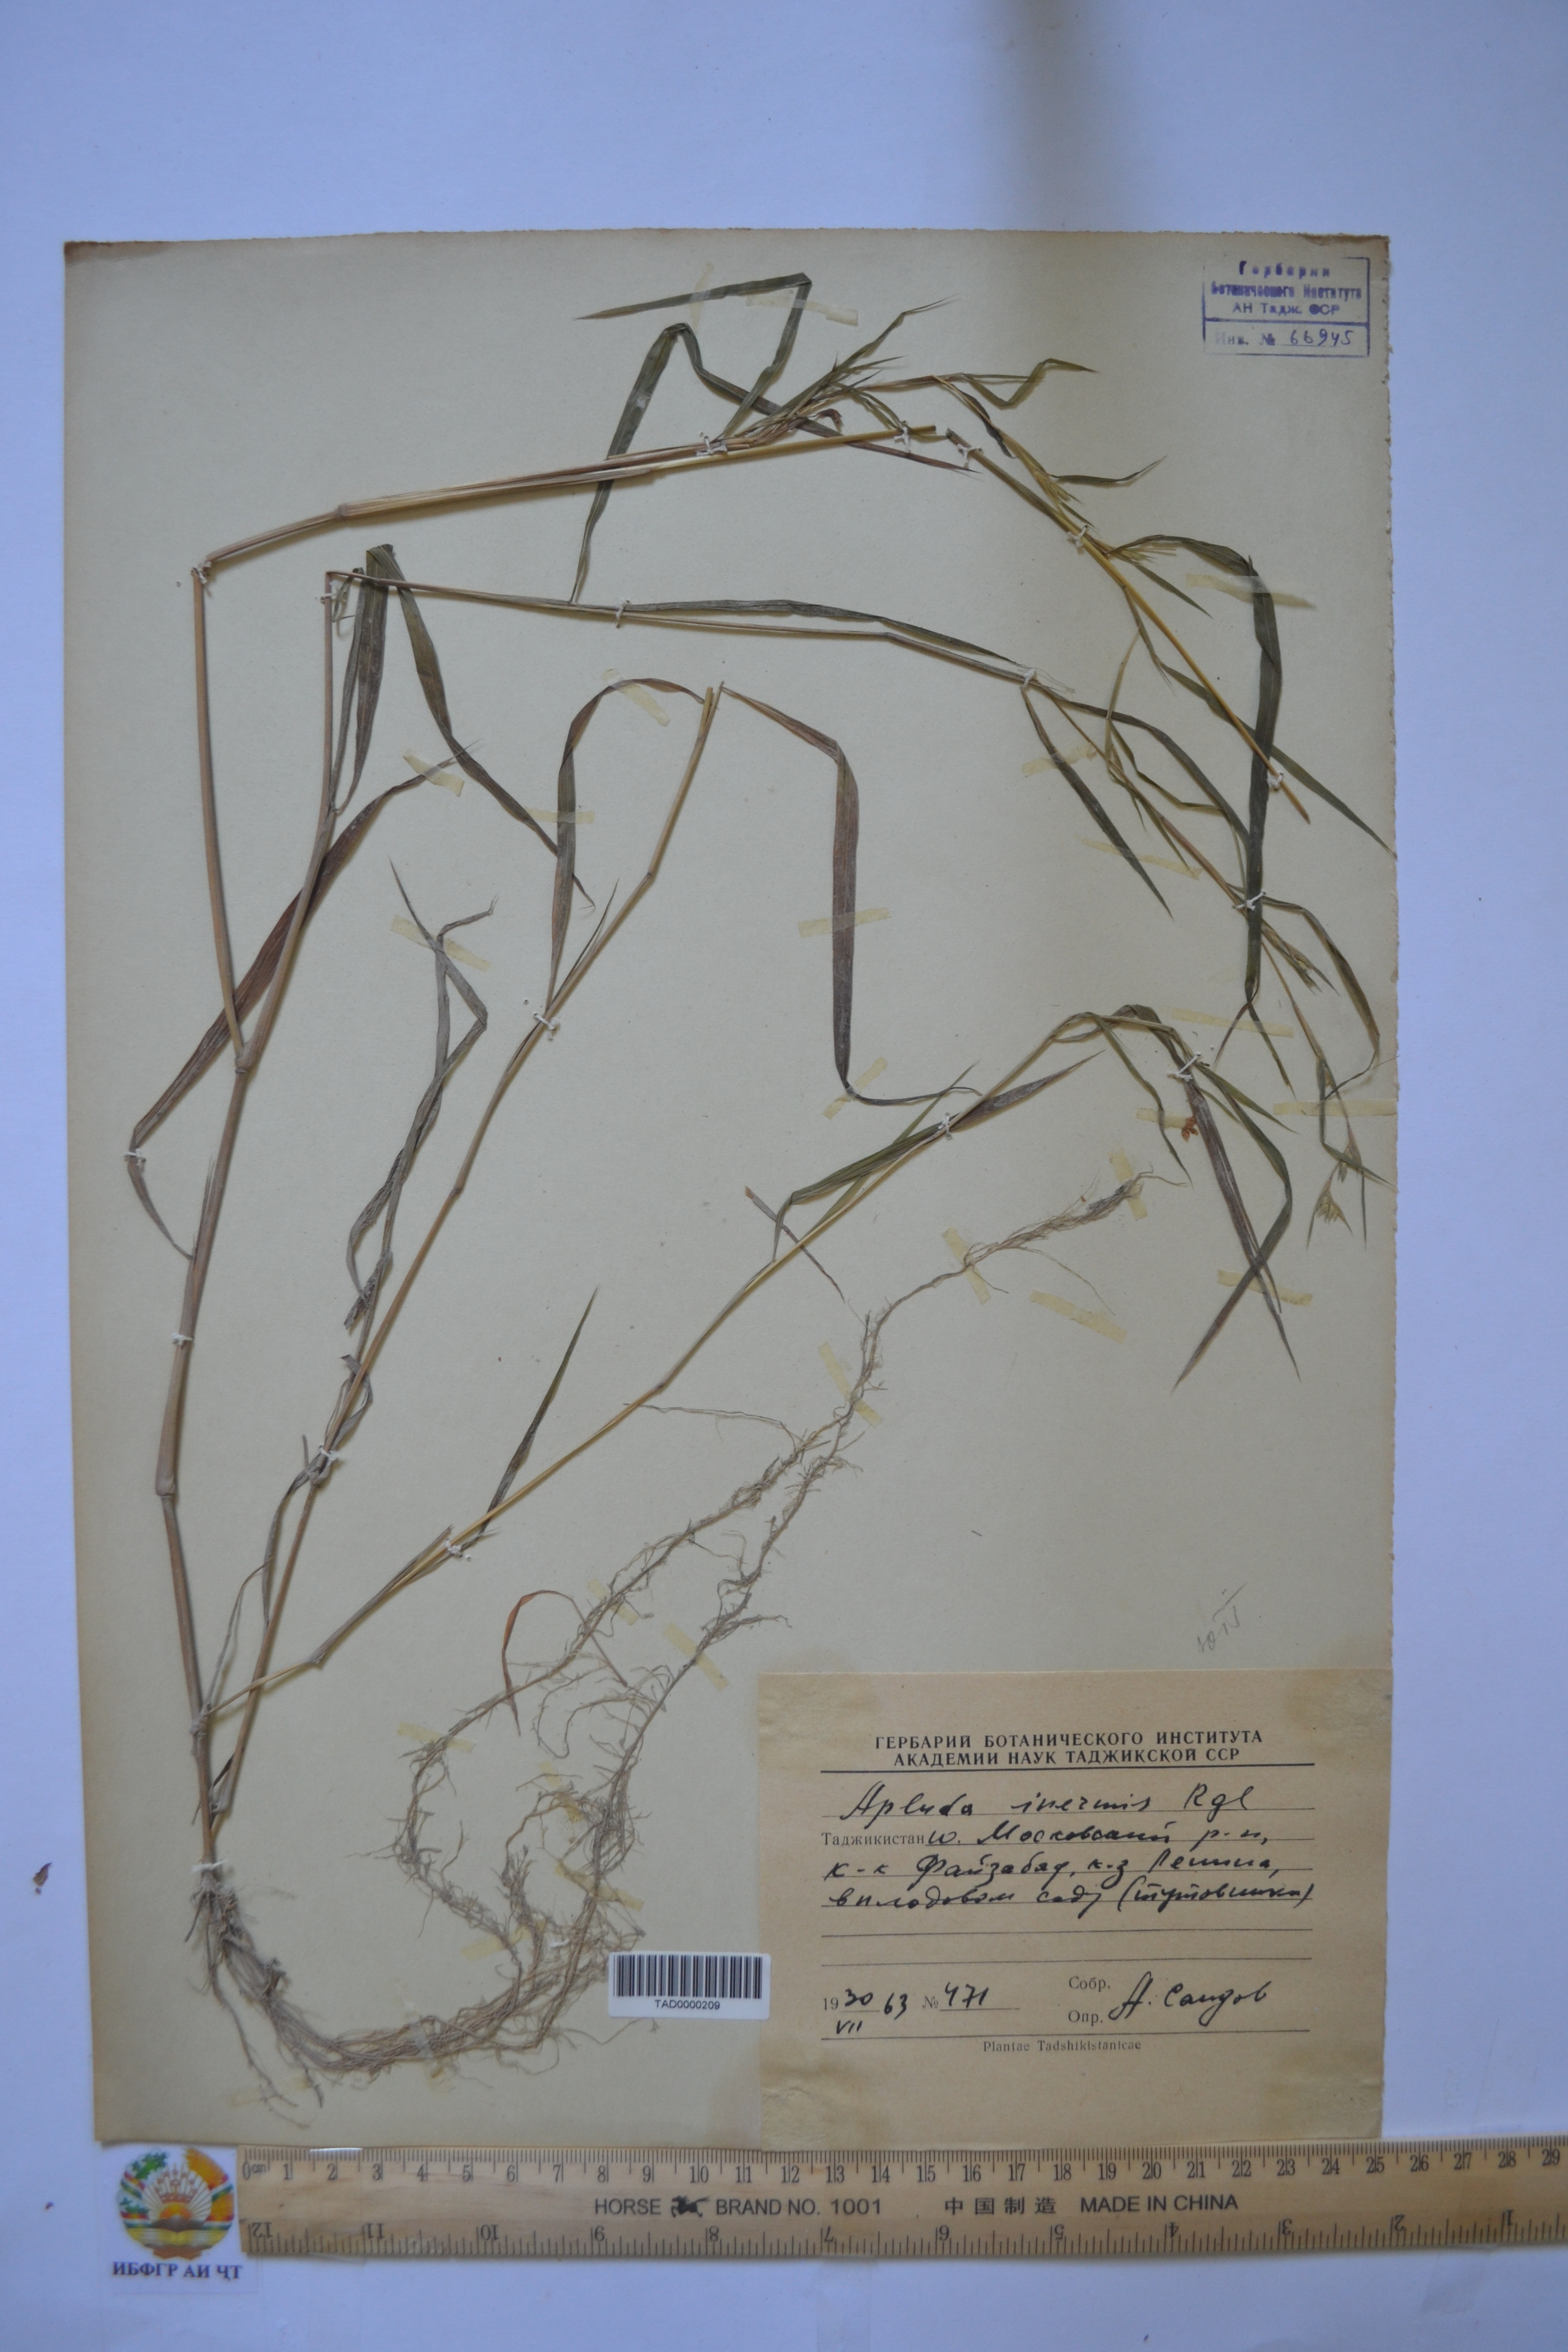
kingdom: Plantae
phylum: Tracheophyta
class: Liliopsida
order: Poales
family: Poaceae
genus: Apluda
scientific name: Apluda mutica
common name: Mauritian grass
